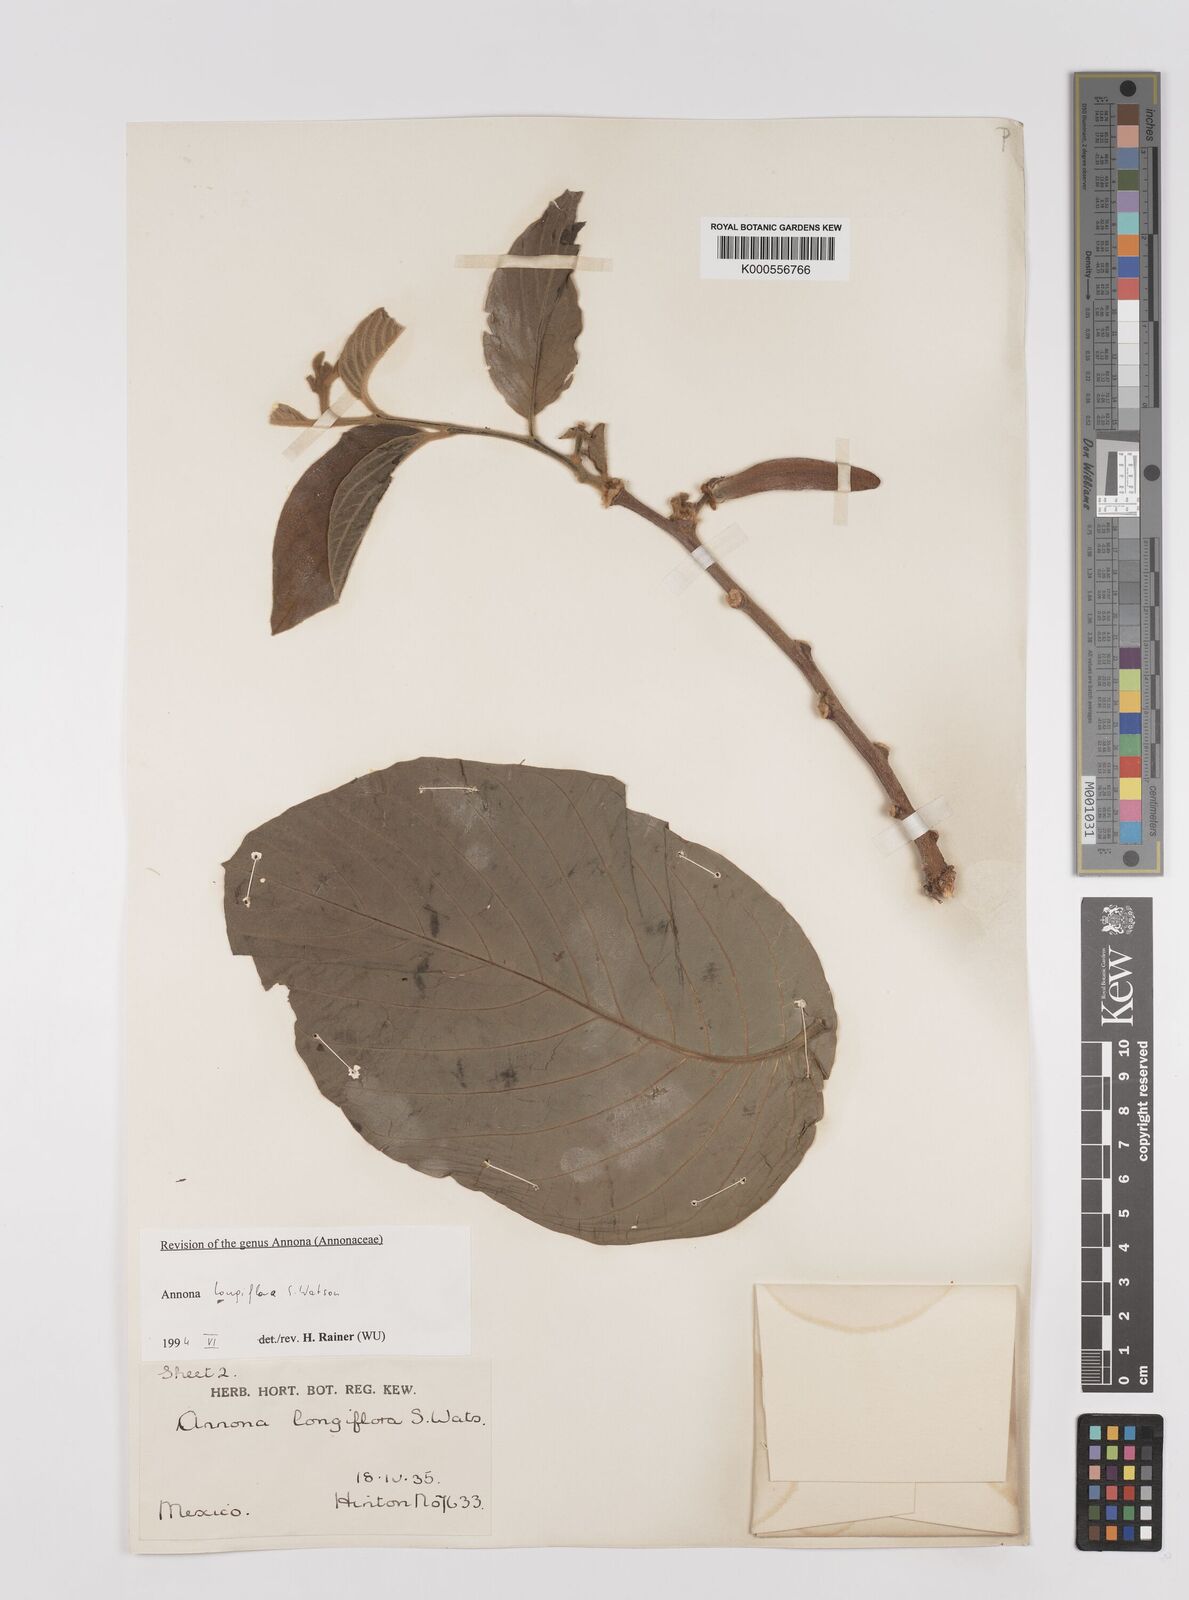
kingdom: Plantae
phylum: Tracheophyta
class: Magnoliopsida
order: Magnoliales
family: Annonaceae
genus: Annona
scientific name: Annona longiflora
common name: Wild cherimoya of jalisco
